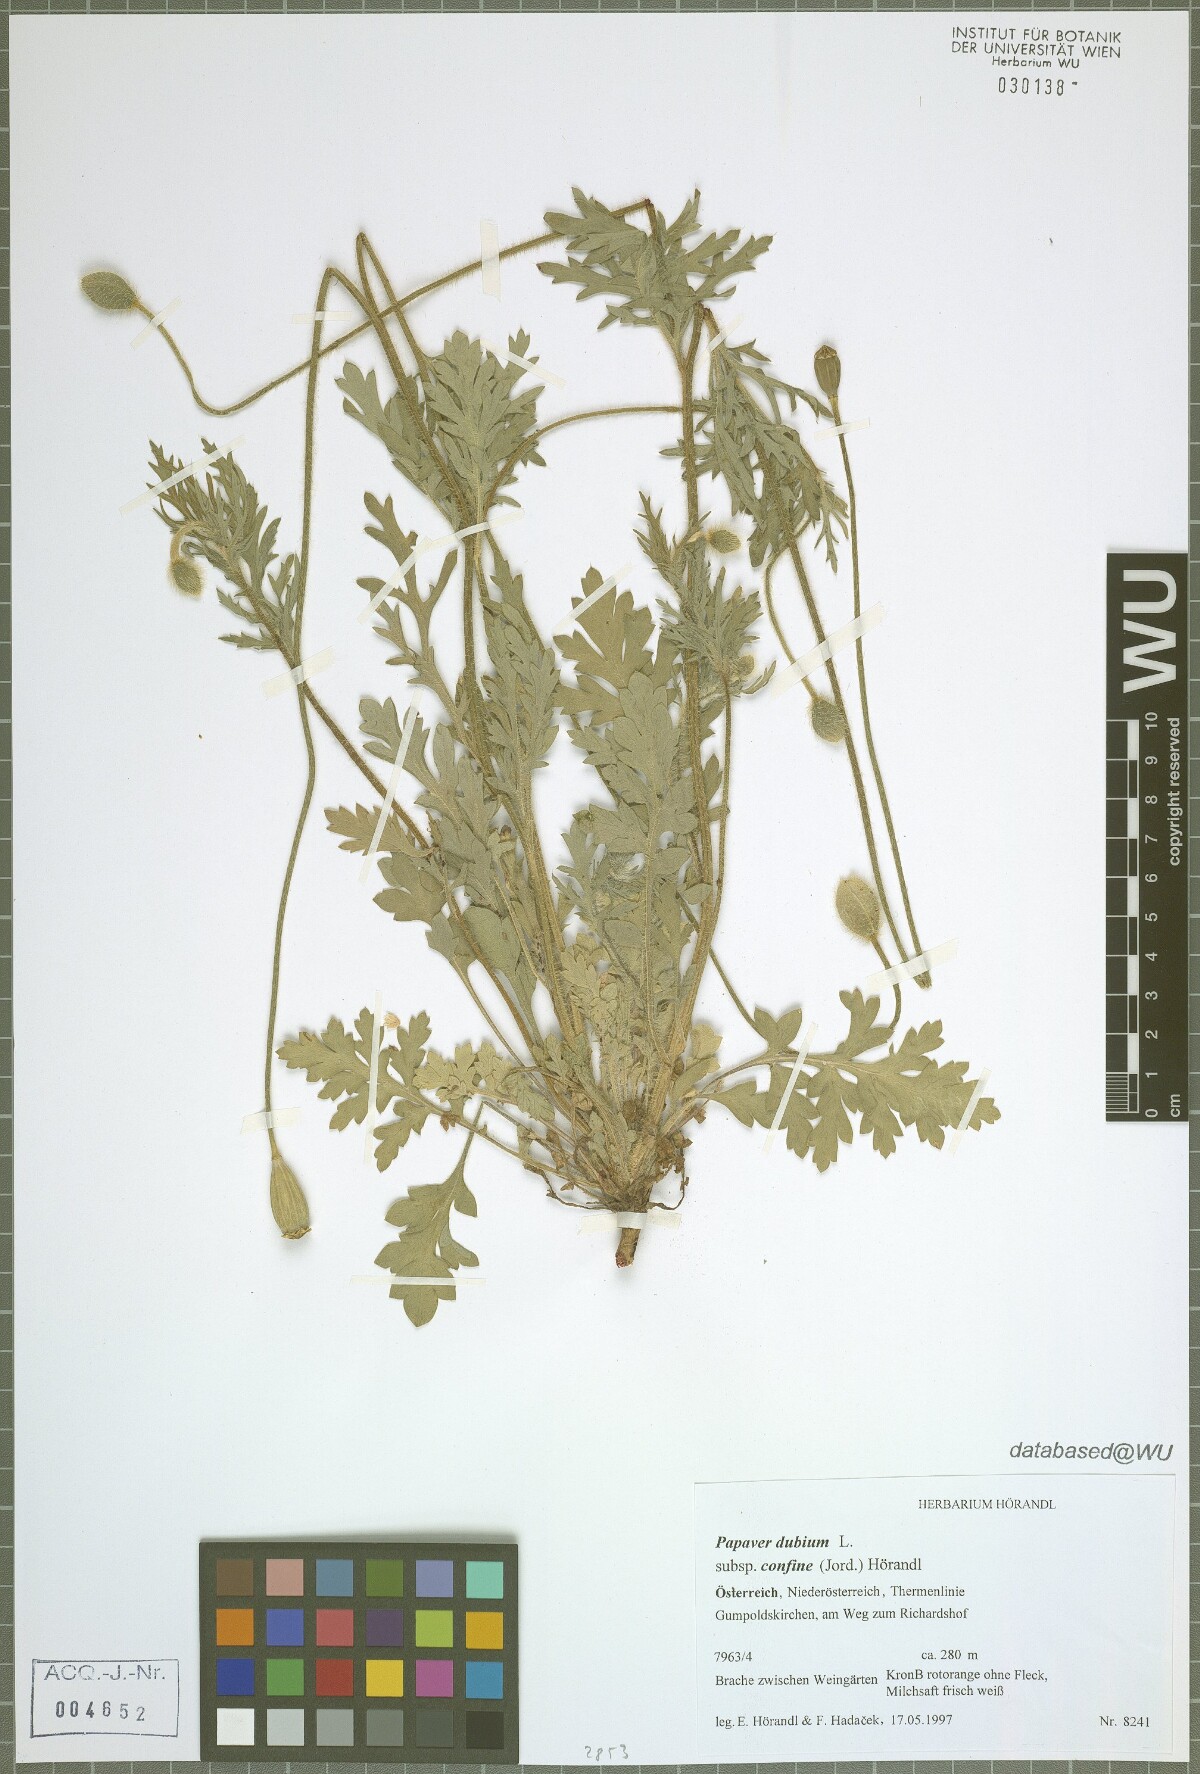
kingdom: Plantae
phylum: Tracheophyta
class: Magnoliopsida
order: Ranunculales
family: Papaveraceae
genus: Papaver
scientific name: Papaver confine
